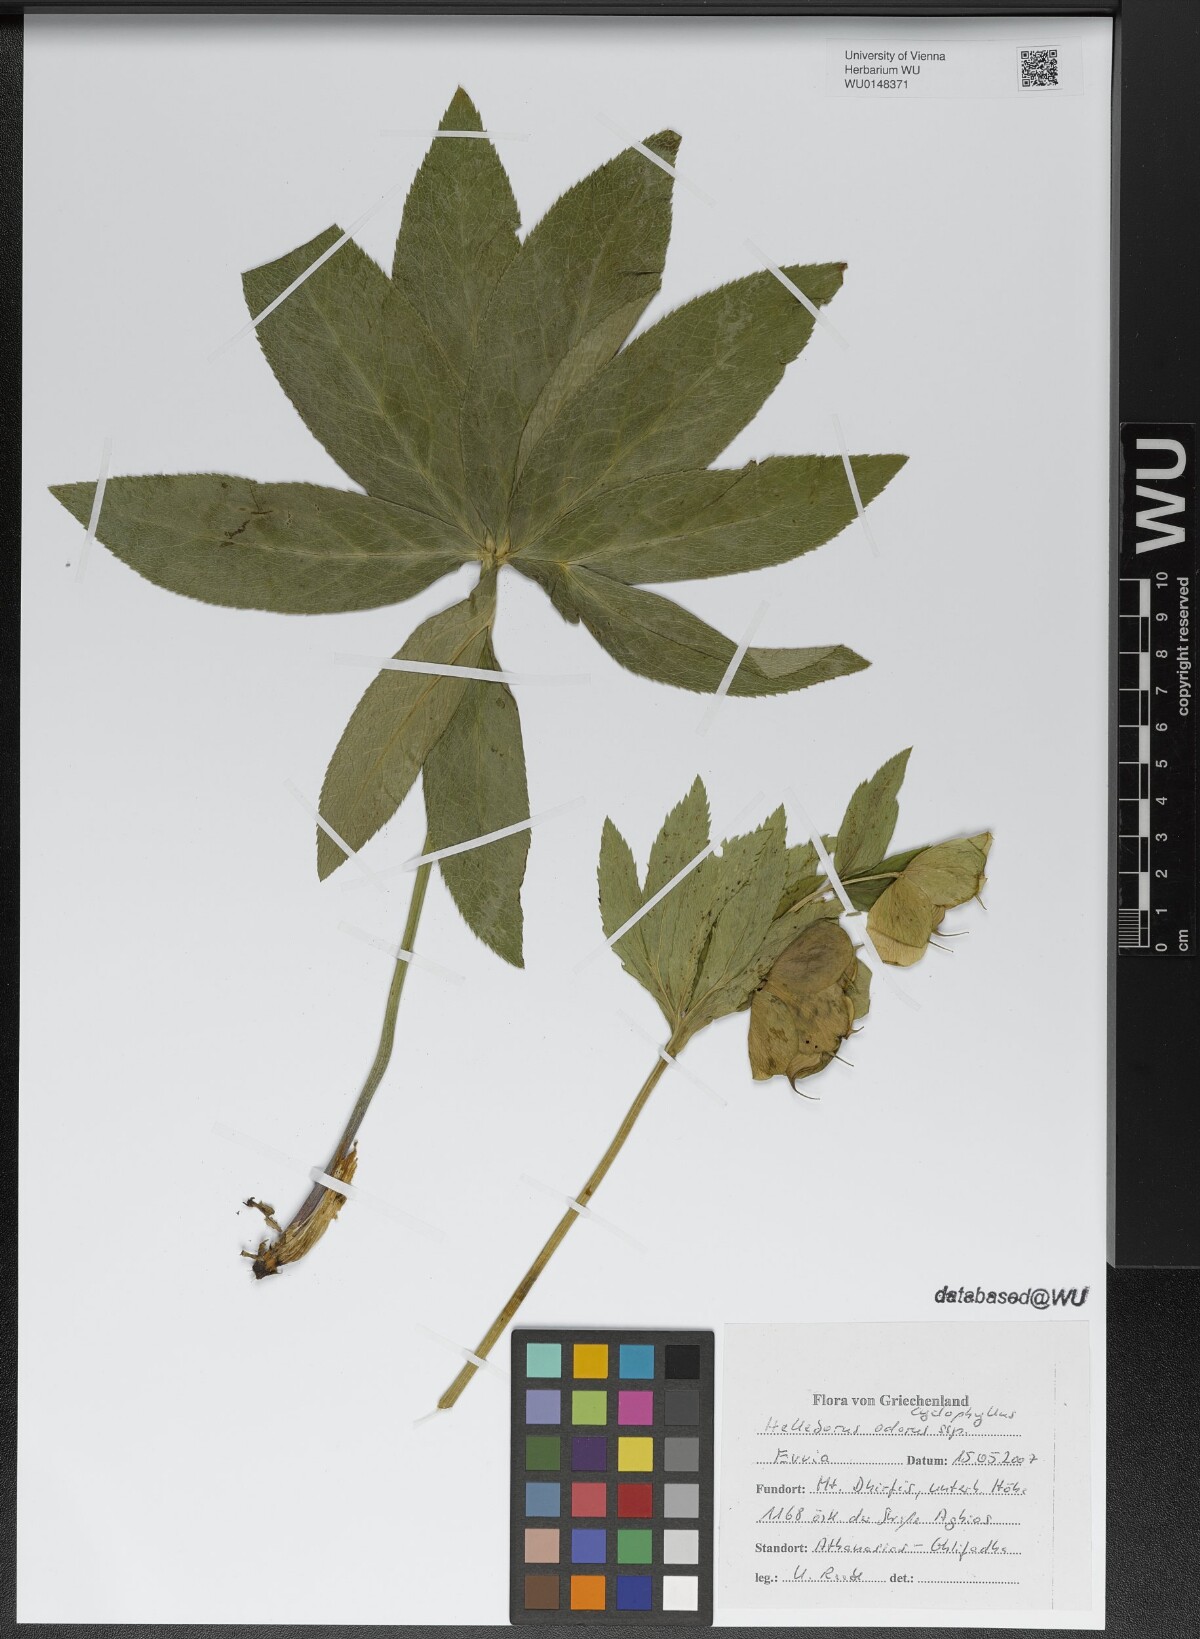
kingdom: Plantae
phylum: Tracheophyta
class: Magnoliopsida
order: Ranunculales
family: Ranunculaceae
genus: Helleborus
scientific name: Helleborus odorus
